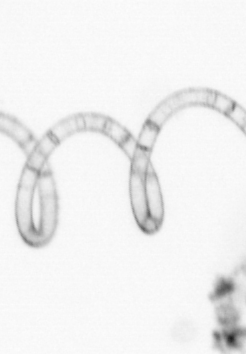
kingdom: Chromista
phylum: Ochrophyta
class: Bacillariophyceae
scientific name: Bacillariophyceae
